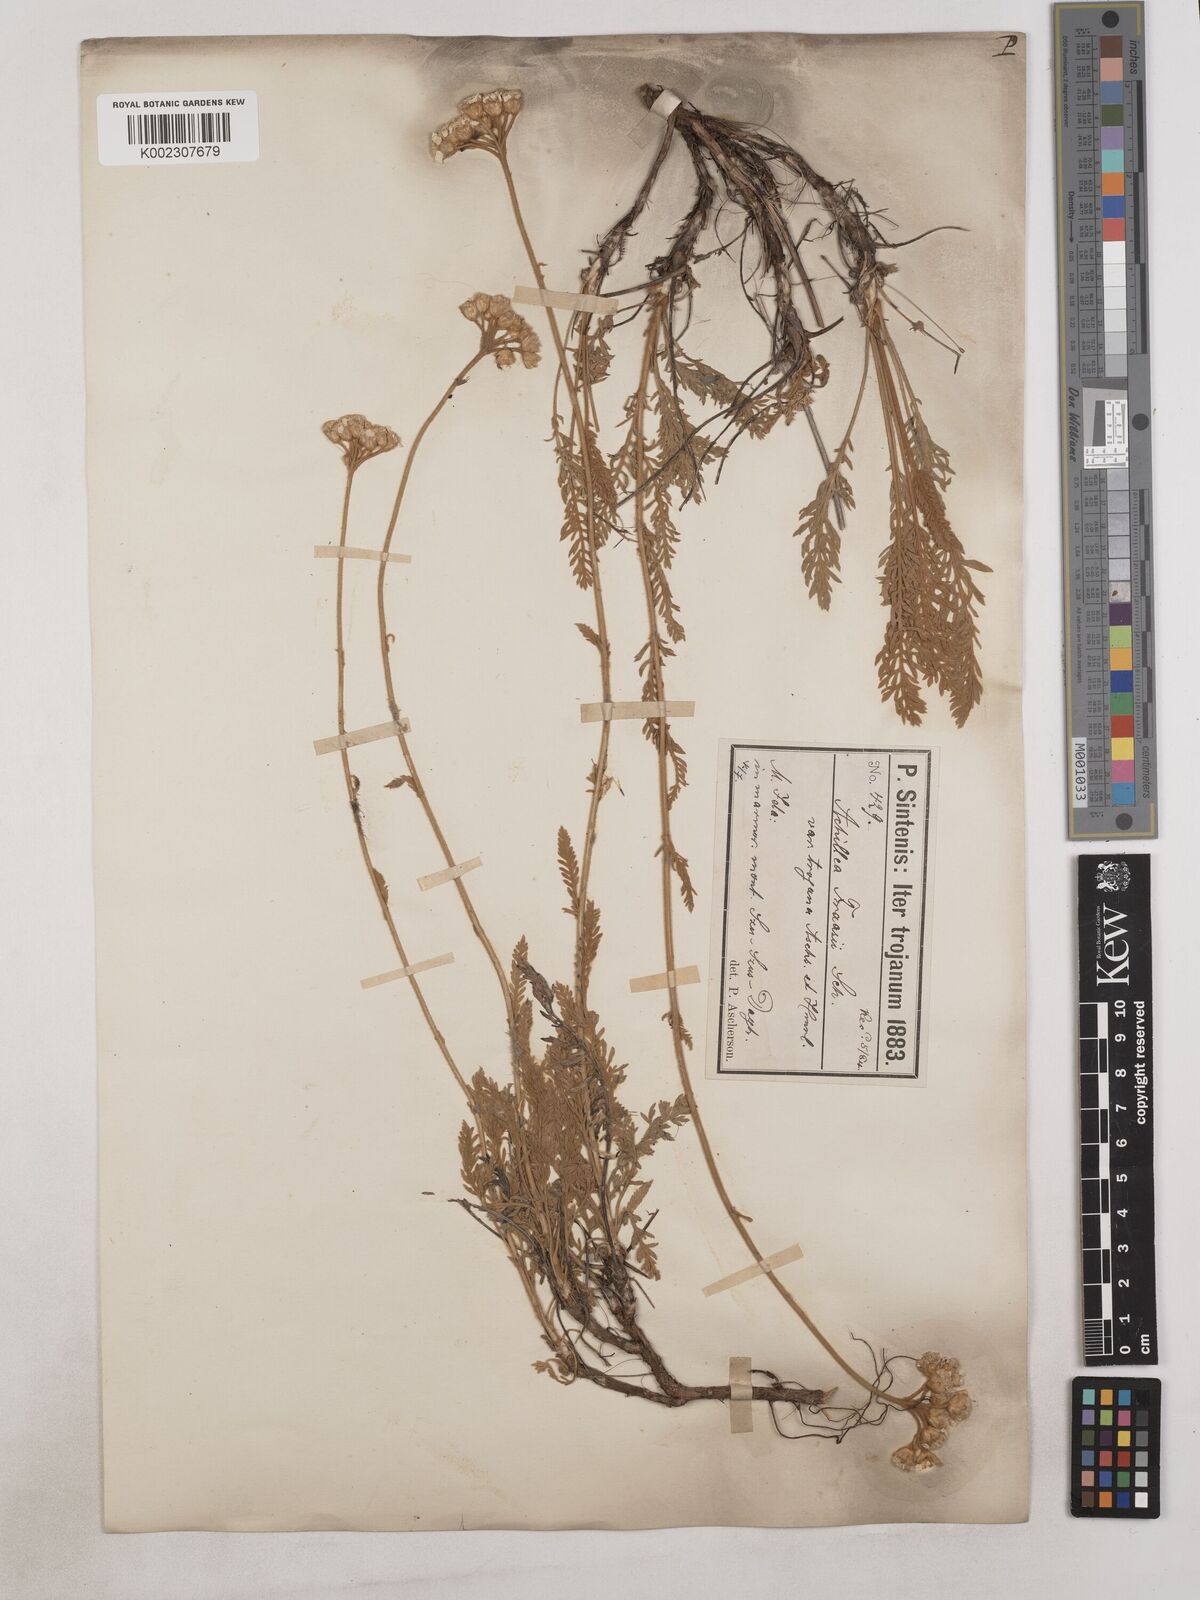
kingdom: Plantae
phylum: Tracheophyta
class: Magnoliopsida
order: Asterales
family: Asteraceae
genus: Achillea
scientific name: Achillea fraasii
